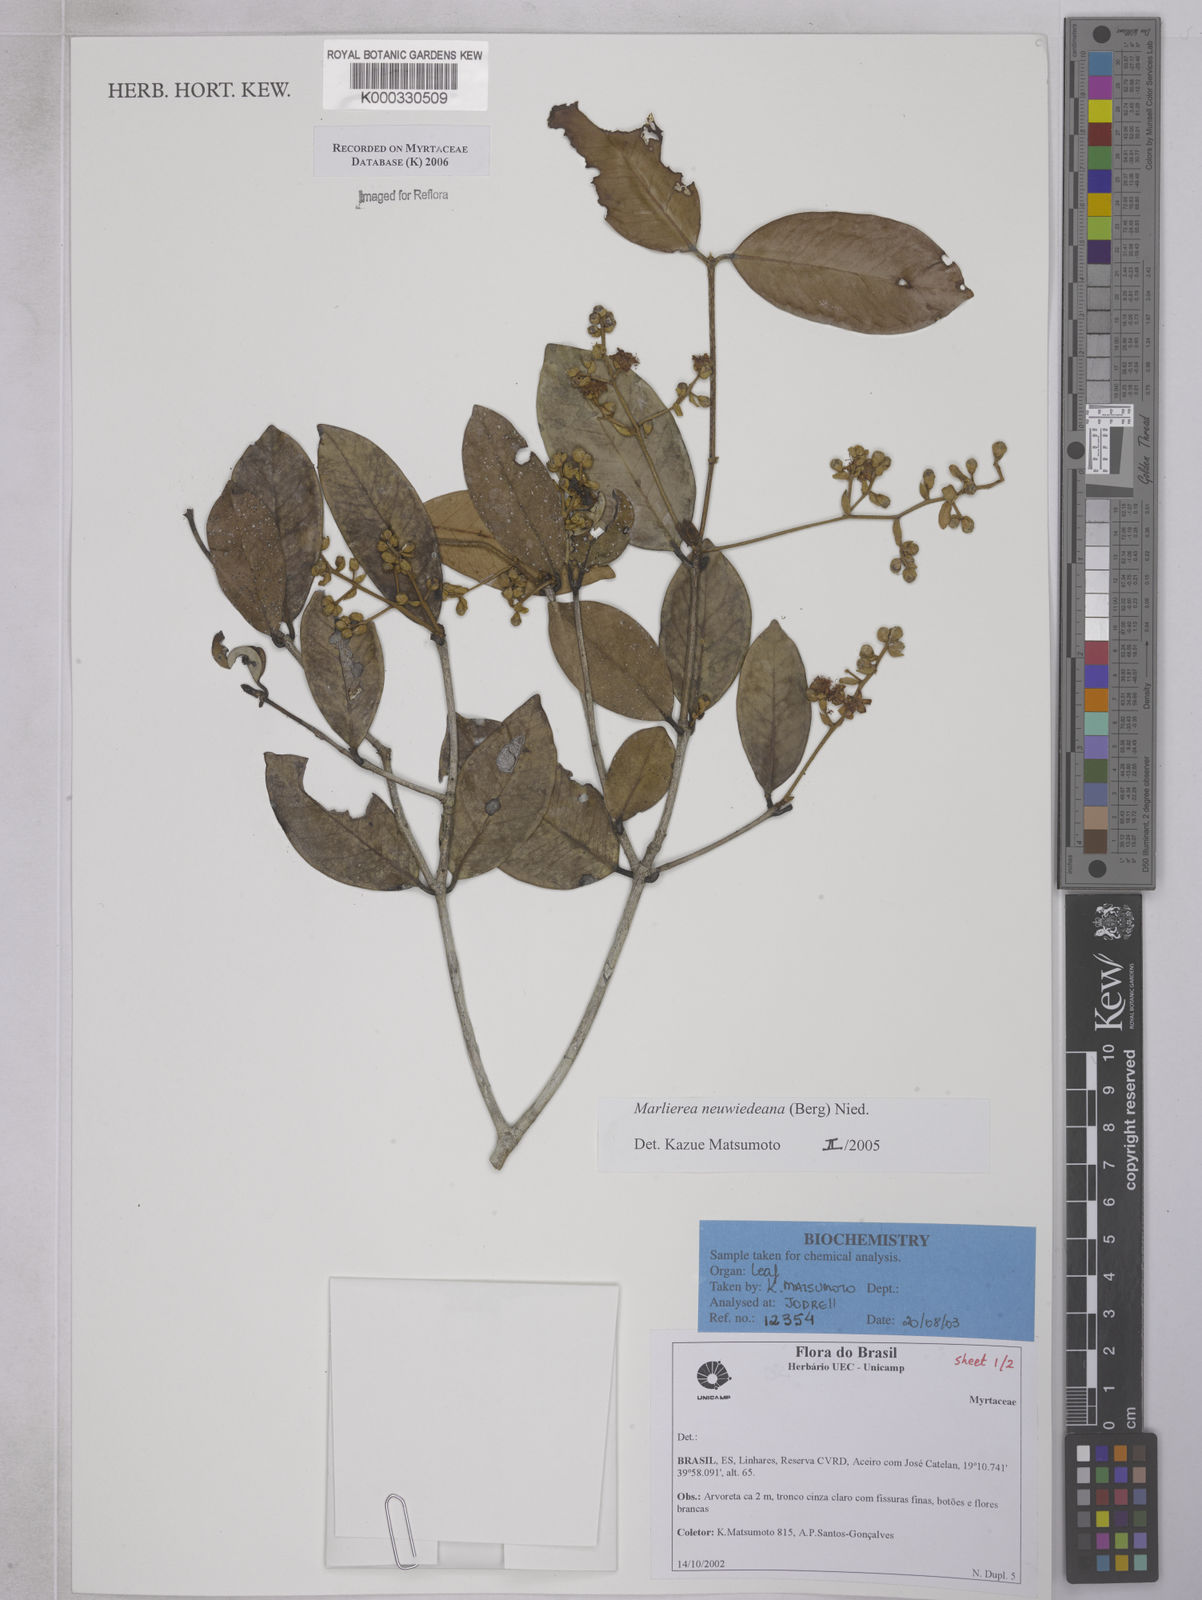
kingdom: Plantae
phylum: Tracheophyta
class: Magnoliopsida
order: Myrtales
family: Myrtaceae
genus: Myrcia
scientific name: Myrcia neuwiedeana
